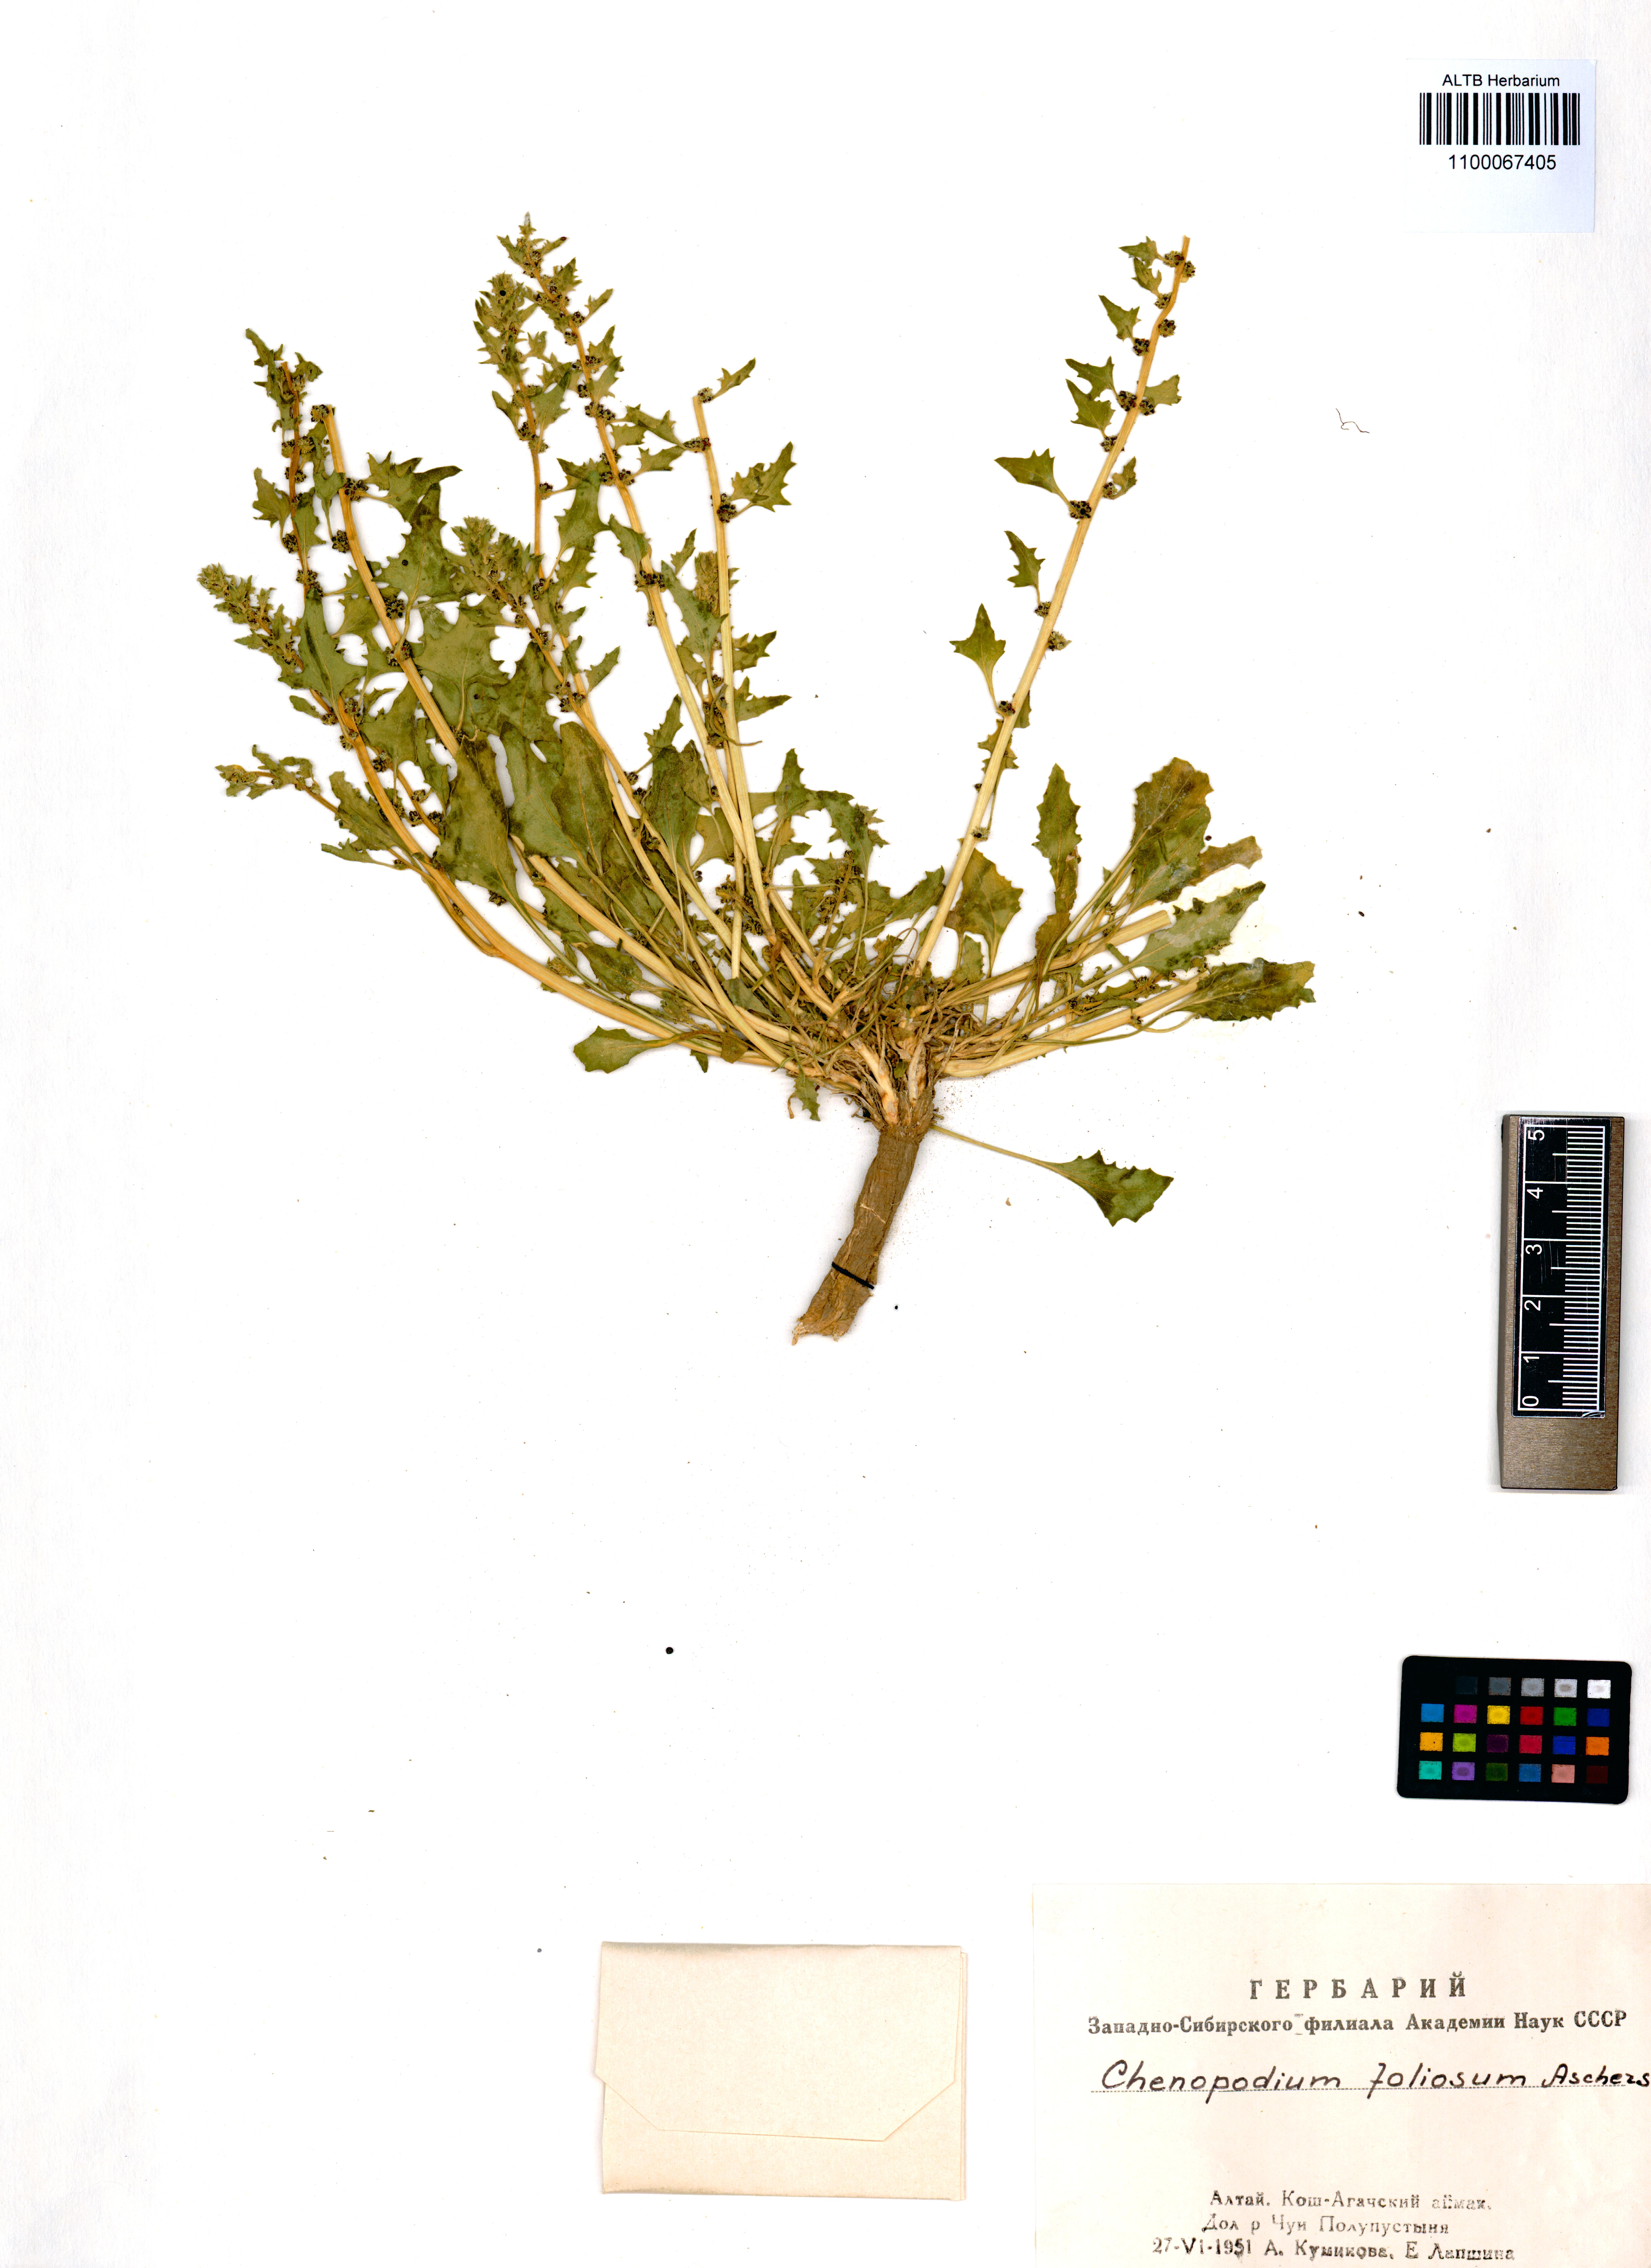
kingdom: Plantae
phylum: Tracheophyta
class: Magnoliopsida
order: Caryophyllales
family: Amaranthaceae
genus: Blitum
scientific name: Blitum virgatum
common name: Strawberry goosefoot
